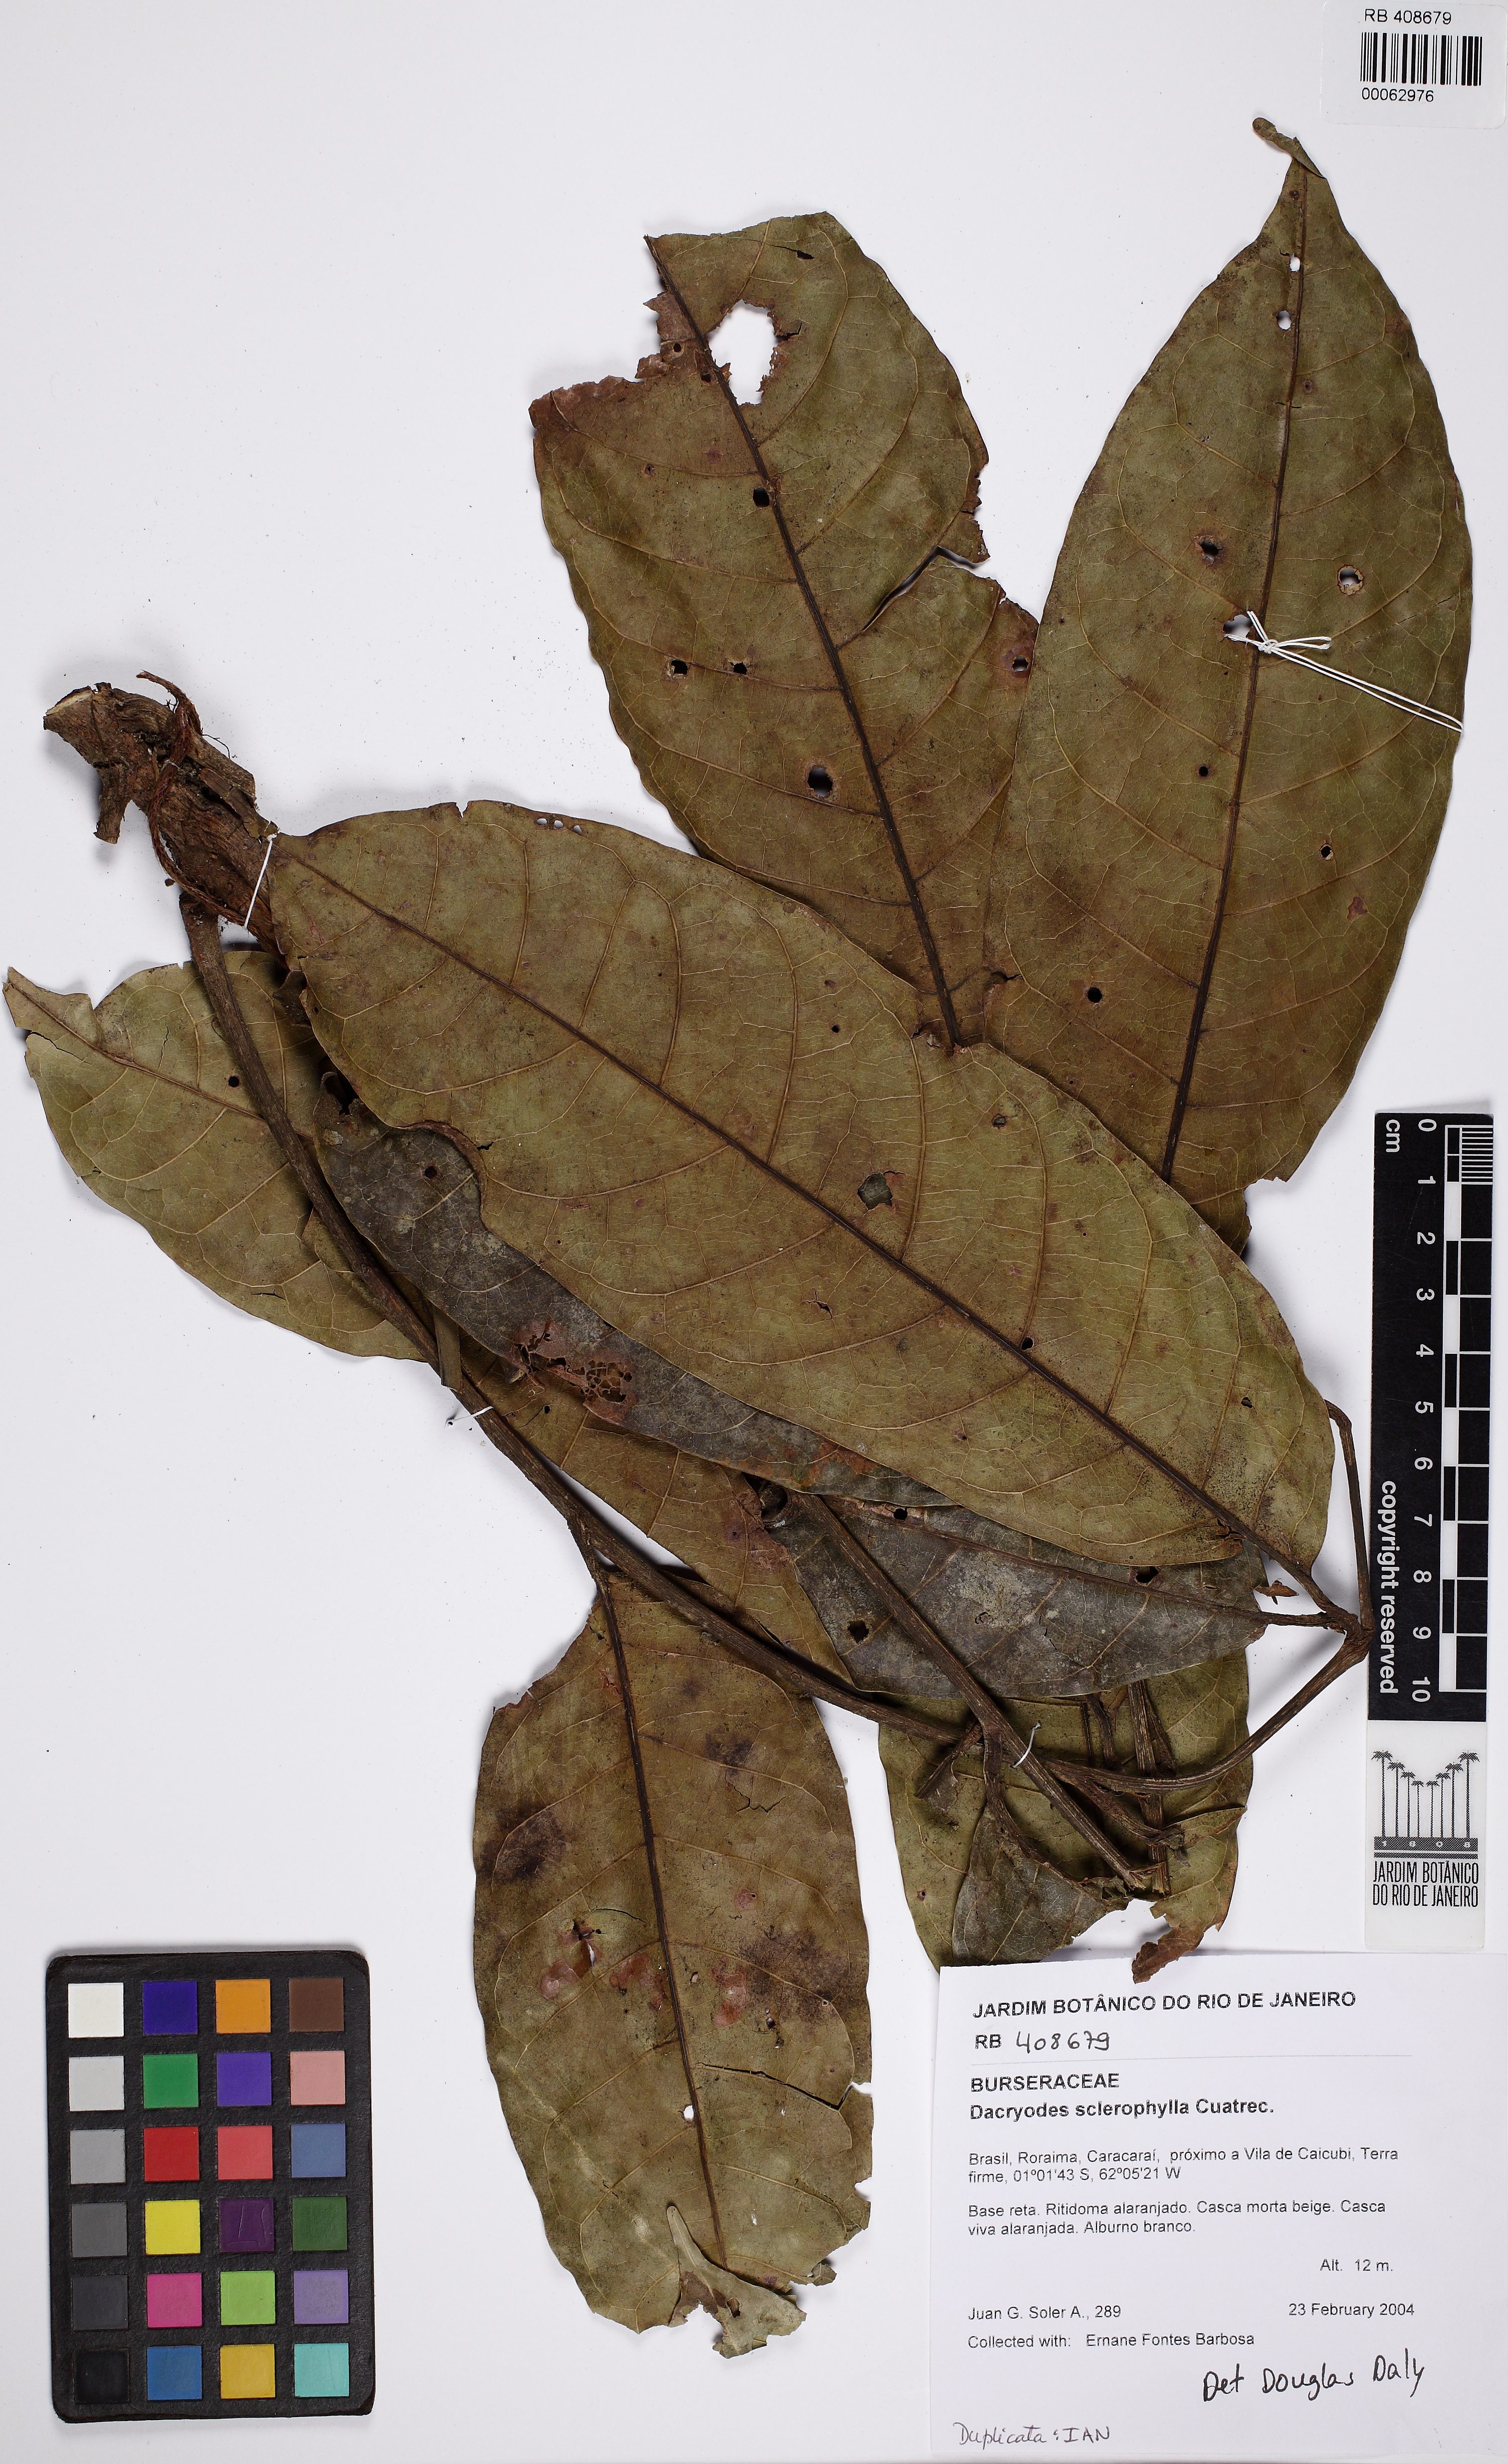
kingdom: Plantae
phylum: Tracheophyta
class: Magnoliopsida
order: Sapindales
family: Burseraceae
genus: Dacryodes
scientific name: Dacryodes sclerophylla
